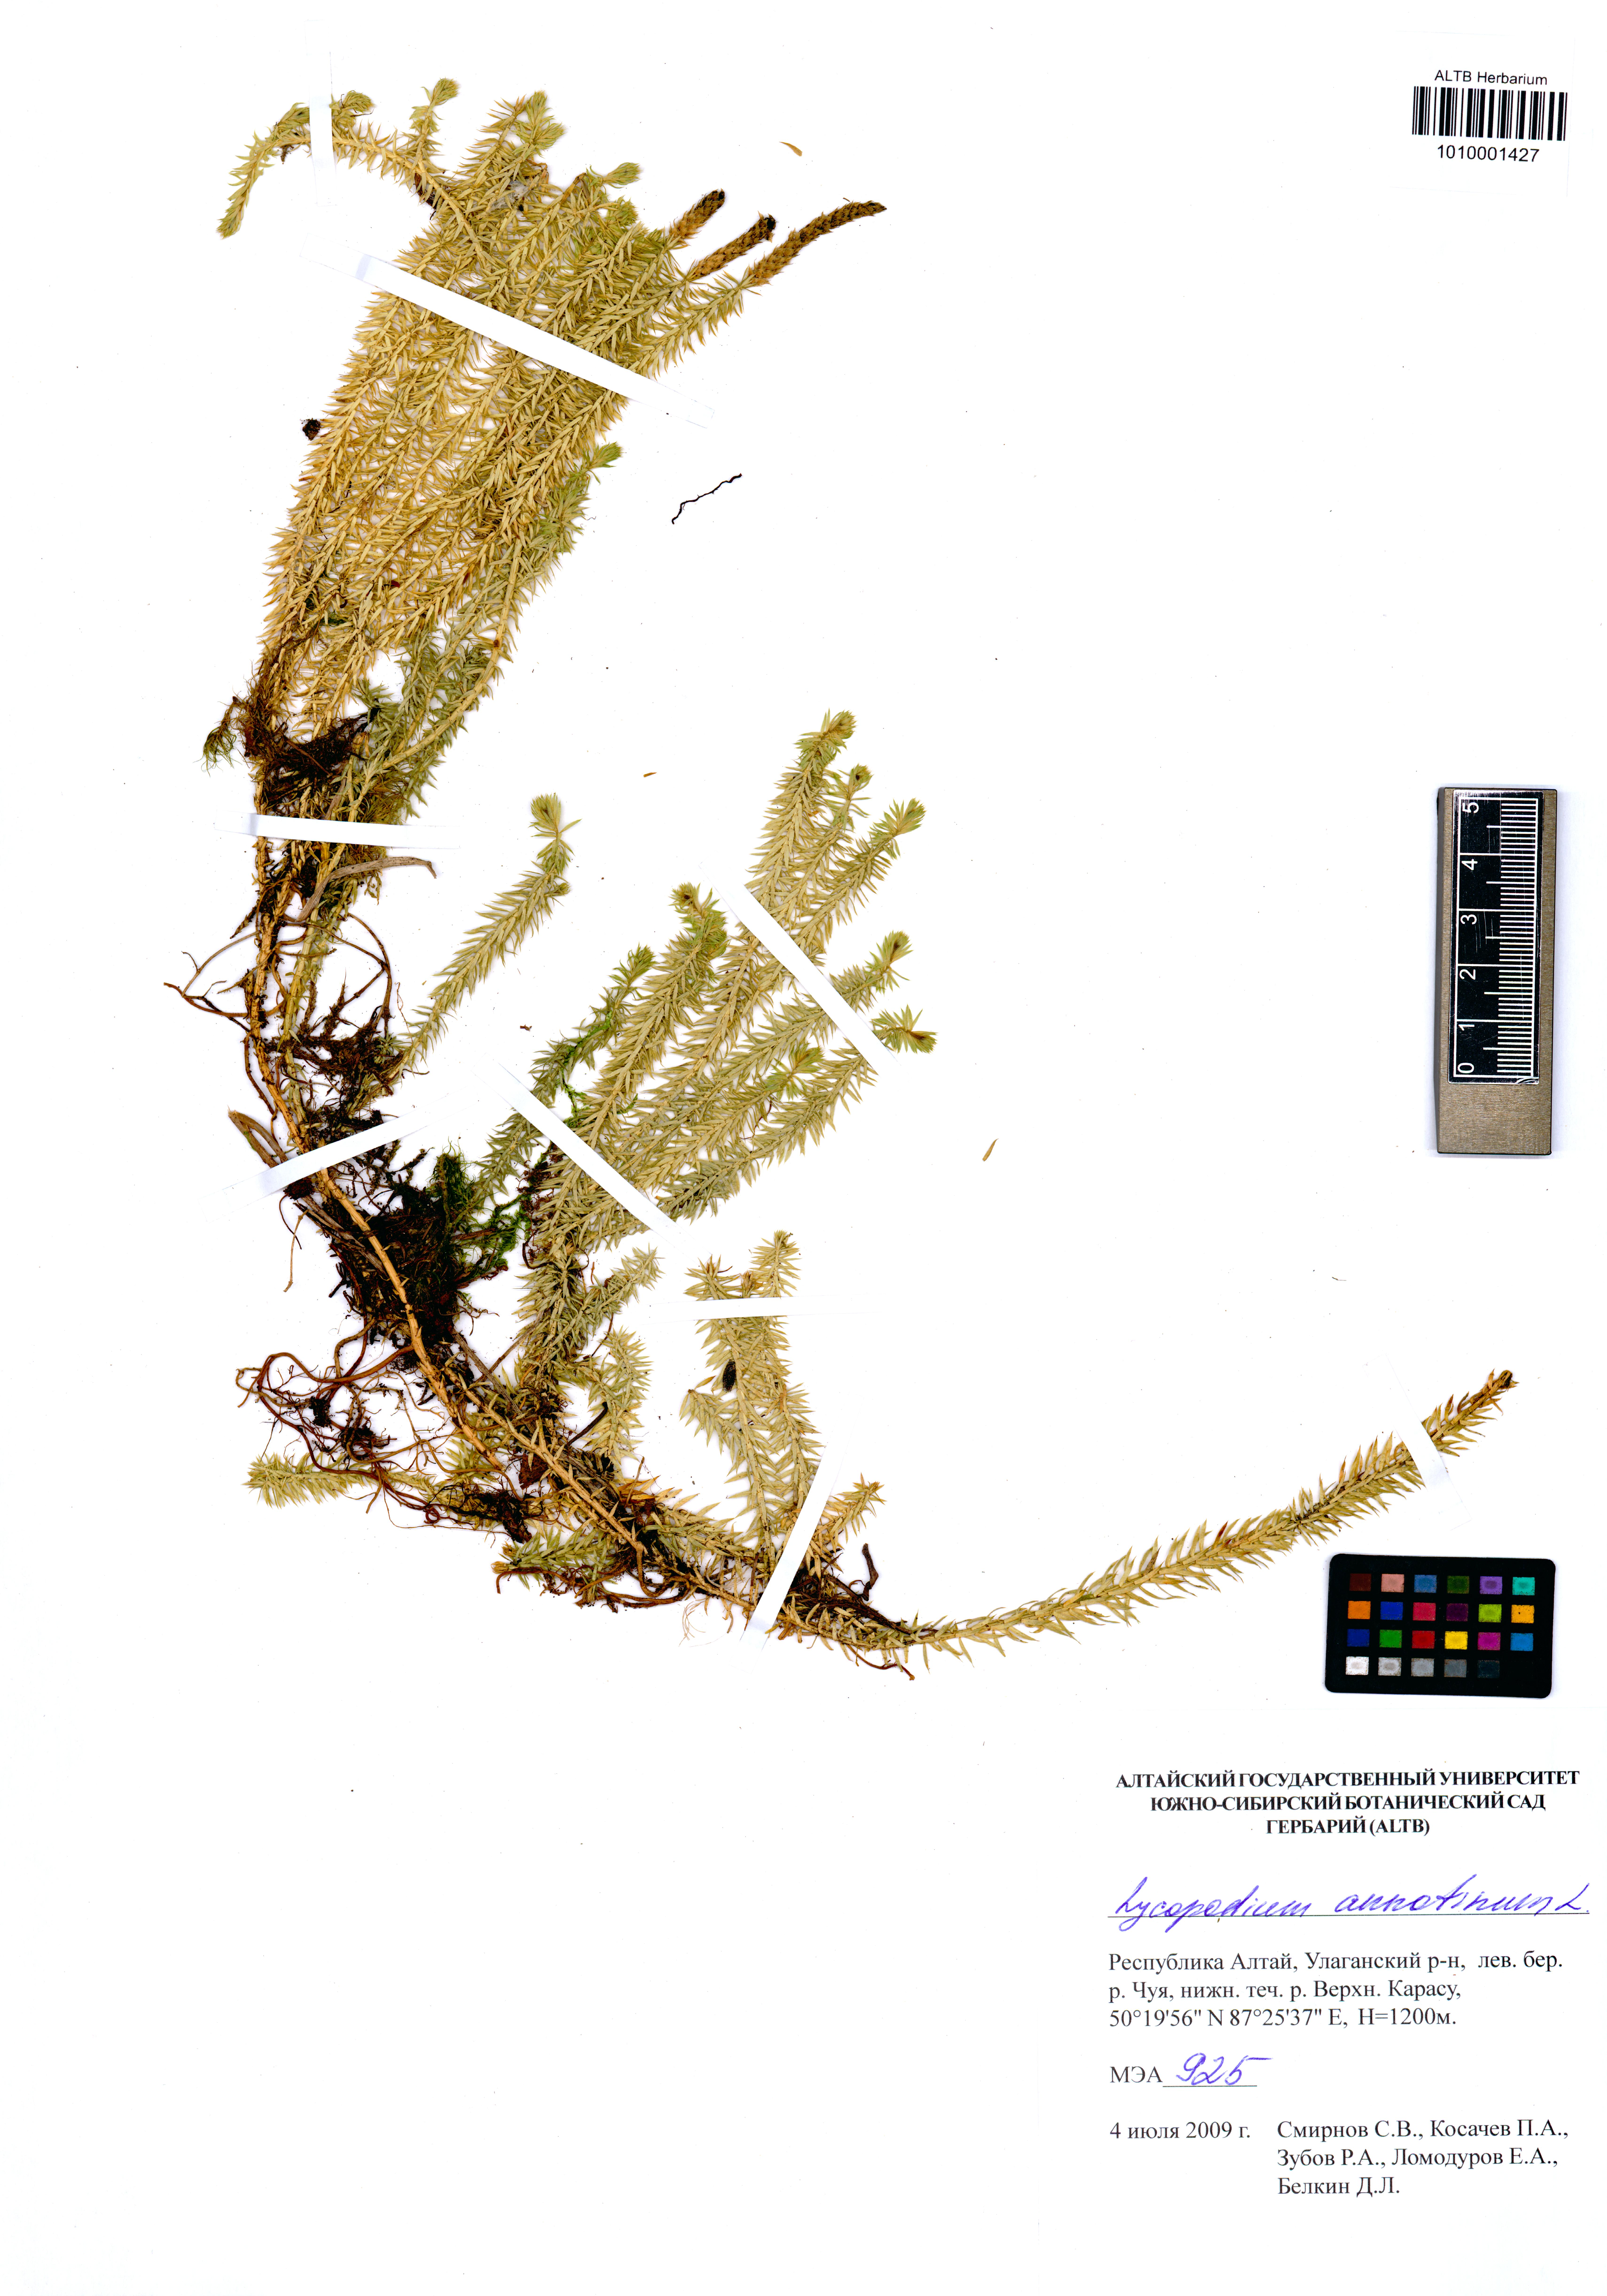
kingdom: Plantae
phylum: Tracheophyta
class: Lycopodiopsida
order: Lycopodiales
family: Lycopodiaceae
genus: Spinulum
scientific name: Spinulum annotinum
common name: Interrupted club-moss
